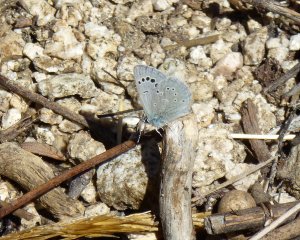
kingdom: Animalia
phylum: Arthropoda
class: Insecta
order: Lepidoptera
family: Lycaenidae
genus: Glaucopsyche
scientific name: Glaucopsyche lygdamus
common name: Silvery Blue
